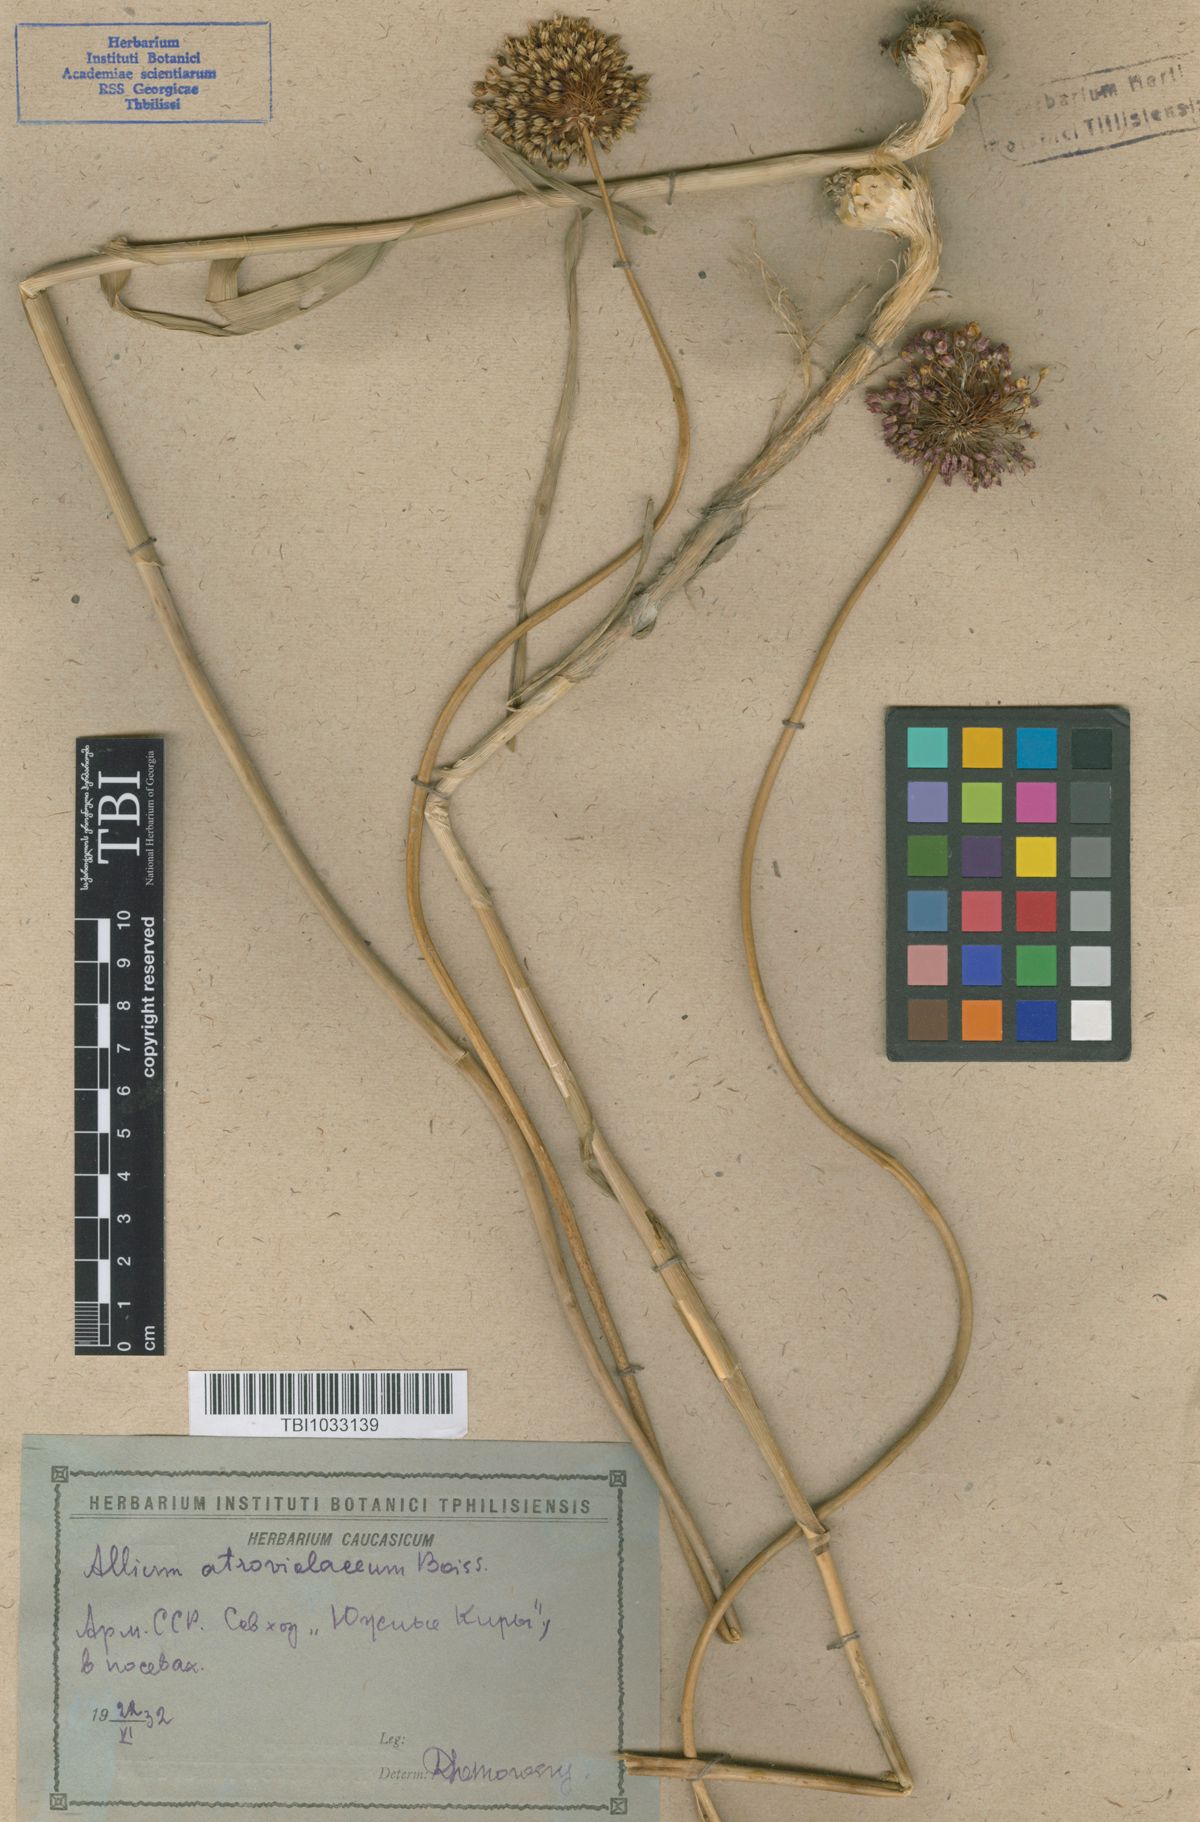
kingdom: Plantae
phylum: Tracheophyta
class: Liliopsida
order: Asparagales
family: Amaryllidaceae
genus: Allium
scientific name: Allium atroviolaceum
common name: Broadleaf wild leek
